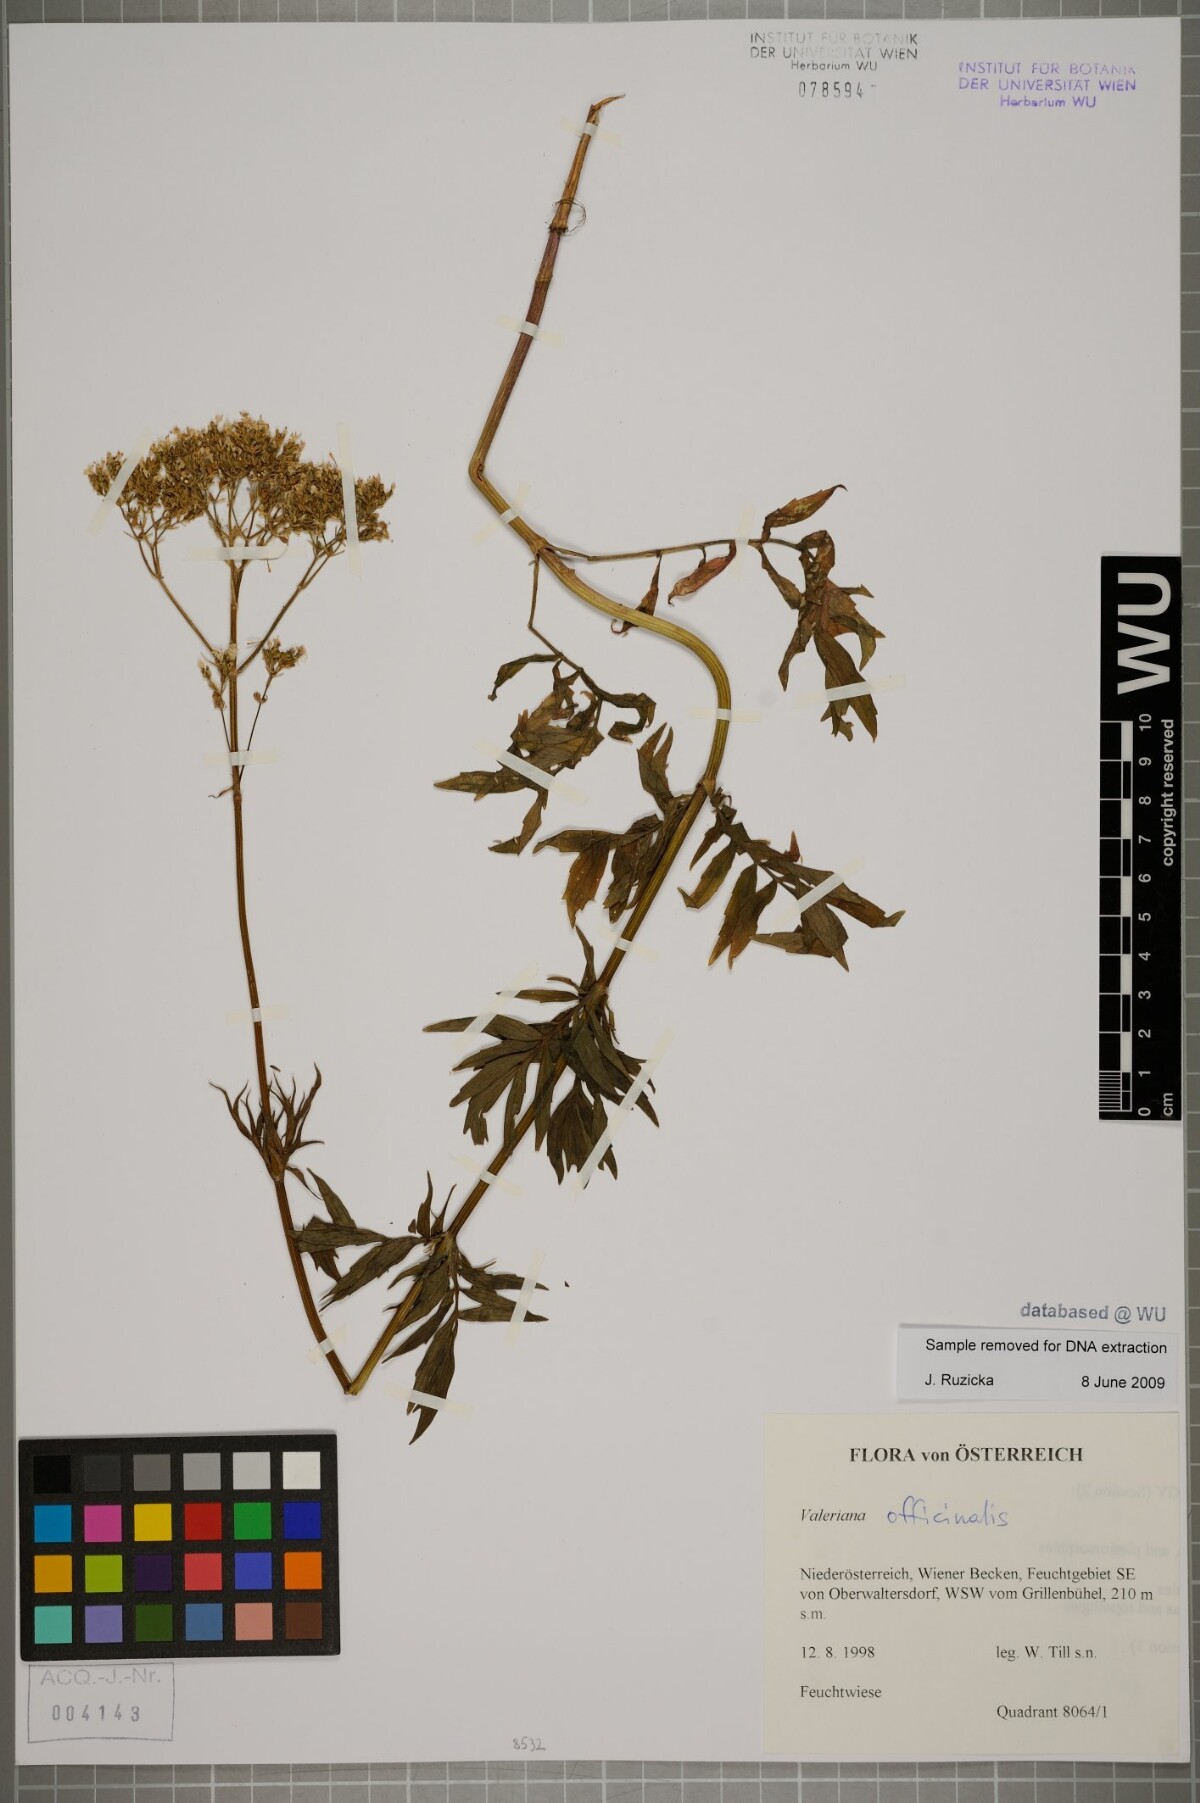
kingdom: Plantae
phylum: Tracheophyta
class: Magnoliopsida
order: Dipsacales
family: Caprifoliaceae
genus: Valeriana
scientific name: Valeriana officinalis
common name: Common valerian
